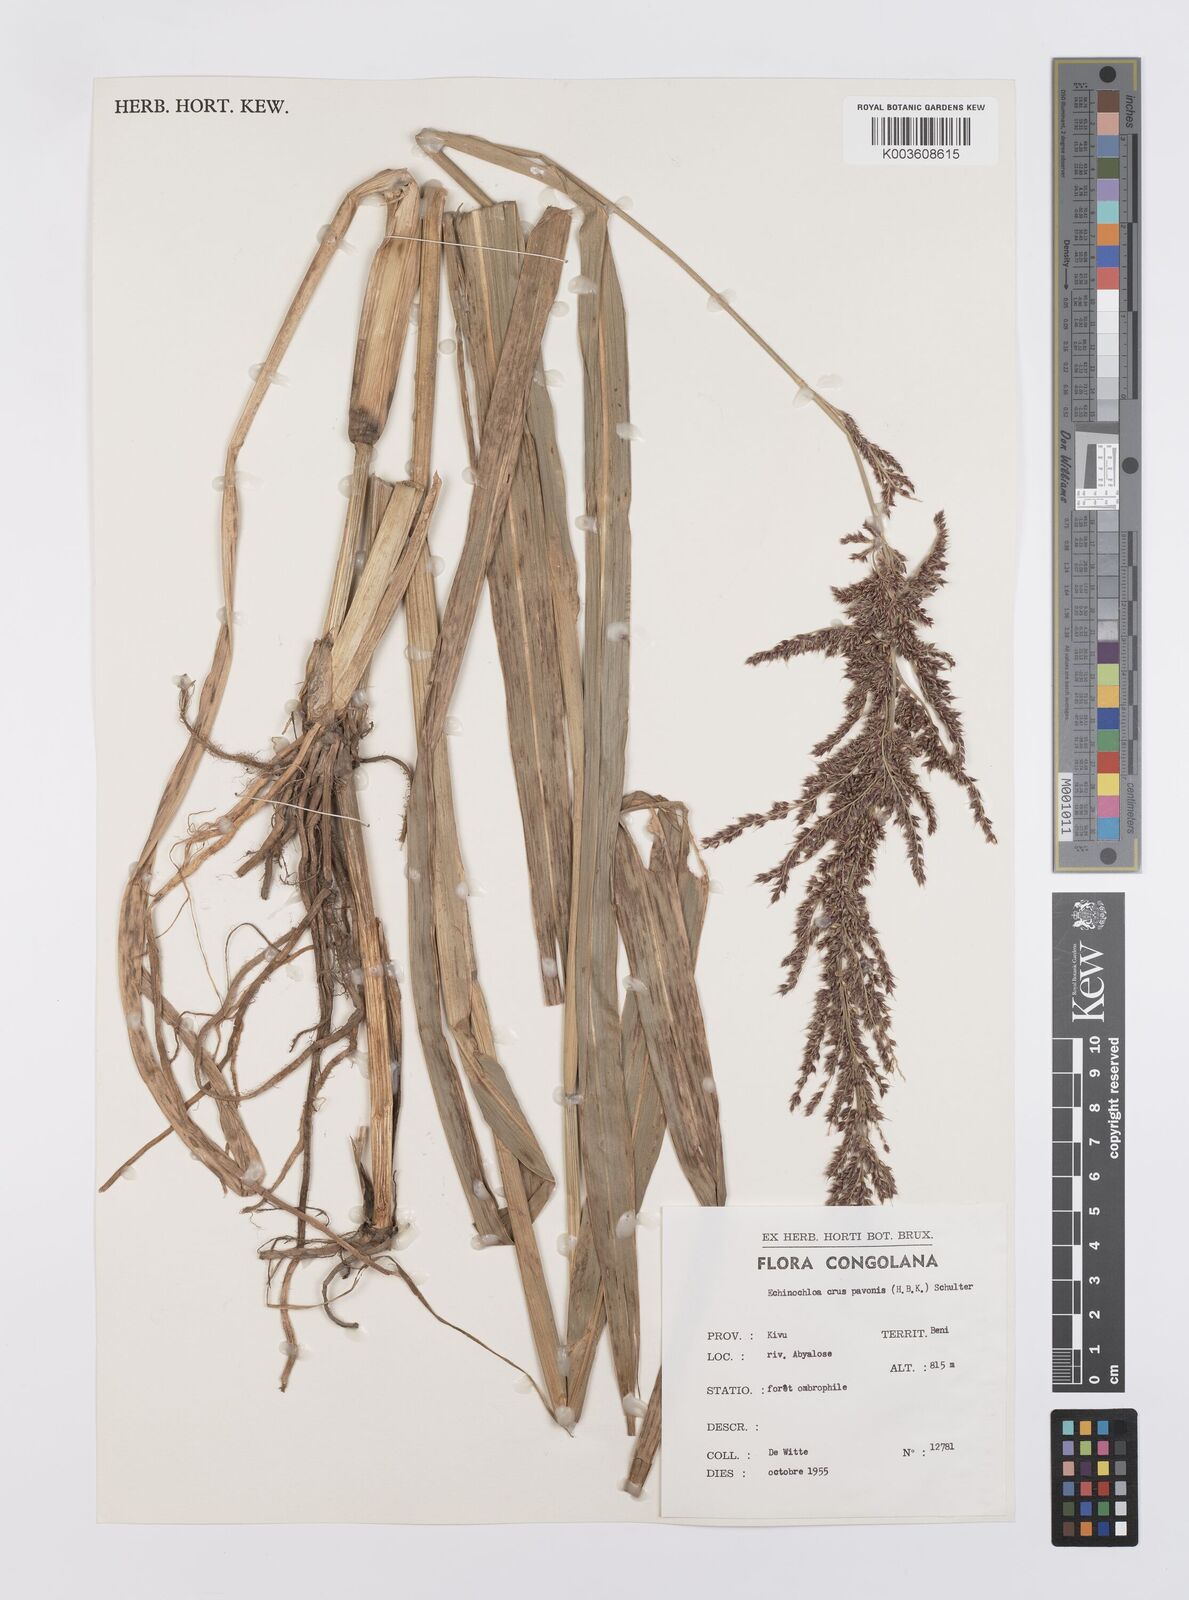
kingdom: Plantae
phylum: Tracheophyta
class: Liliopsida
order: Poales
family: Poaceae
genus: Echinochloa
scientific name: Echinochloa crus-pavonis
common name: Gulf cockspur grass
